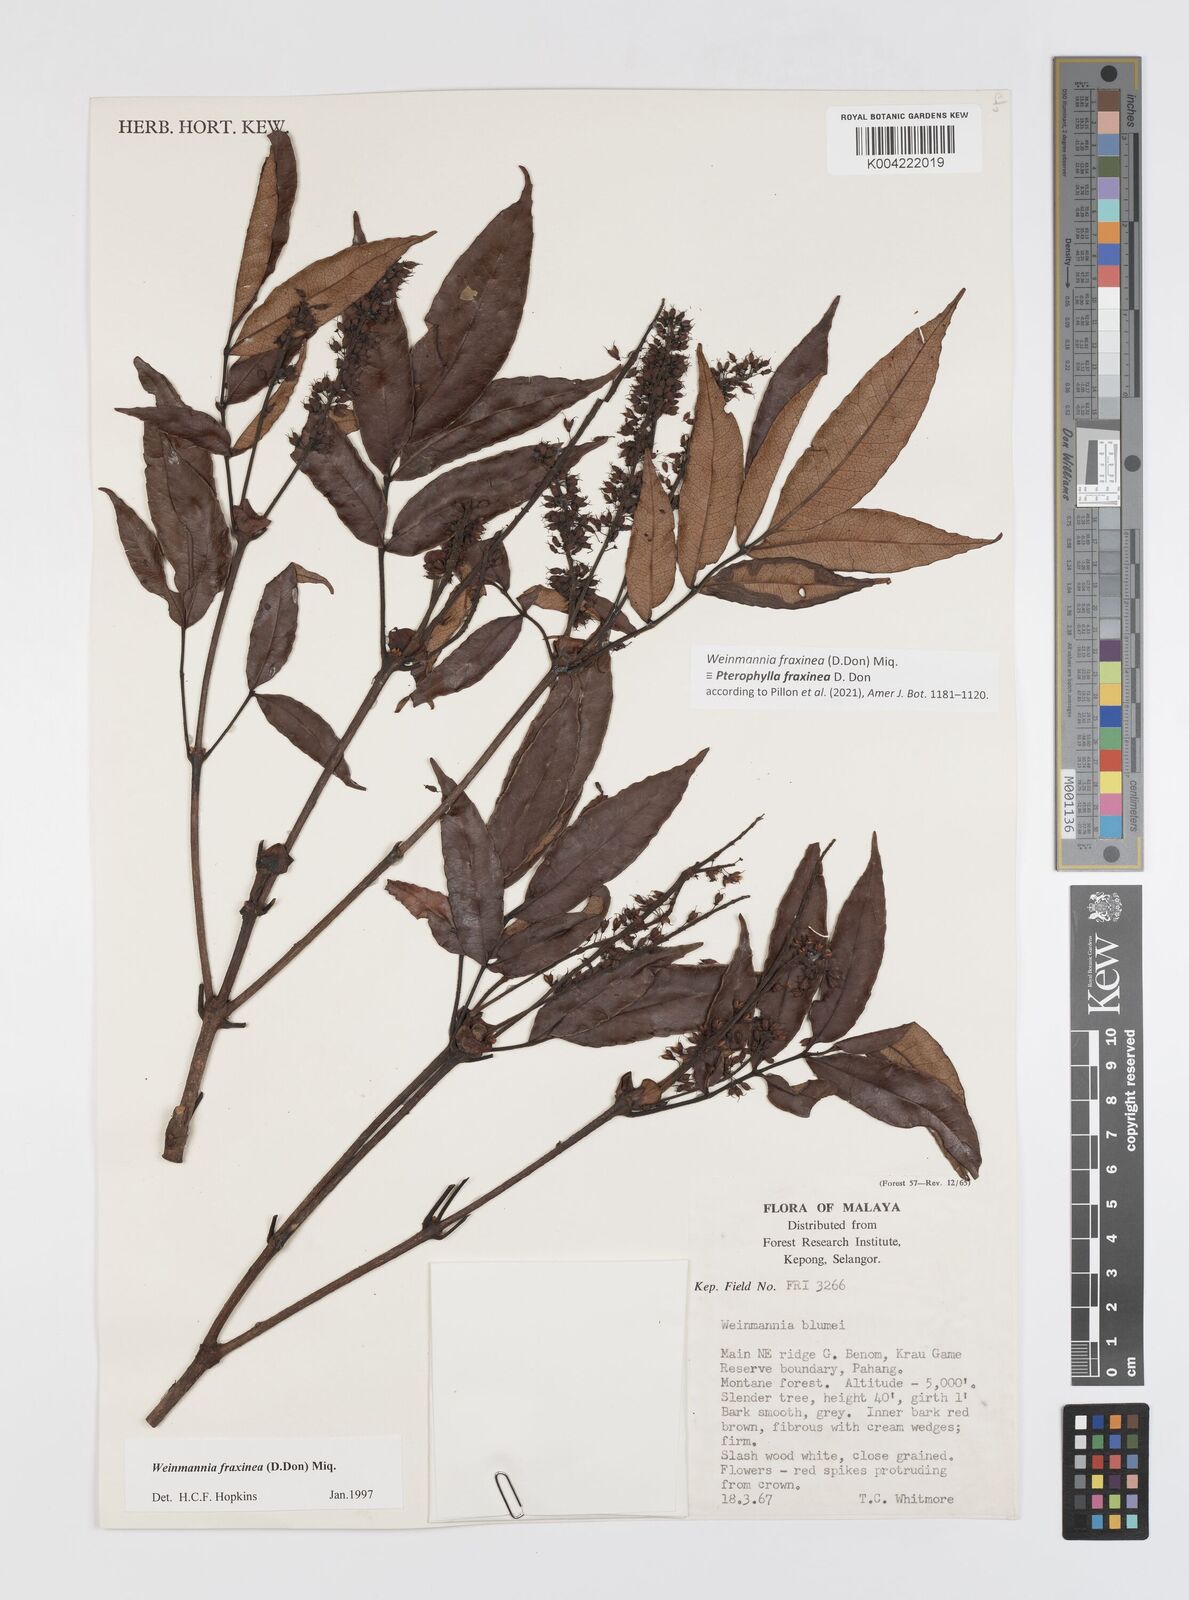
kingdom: Plantae
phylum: Tracheophyta
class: Magnoliopsida
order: Oxalidales
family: Cunoniaceae
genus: Pterophylla
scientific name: Pterophylla fraxinea
